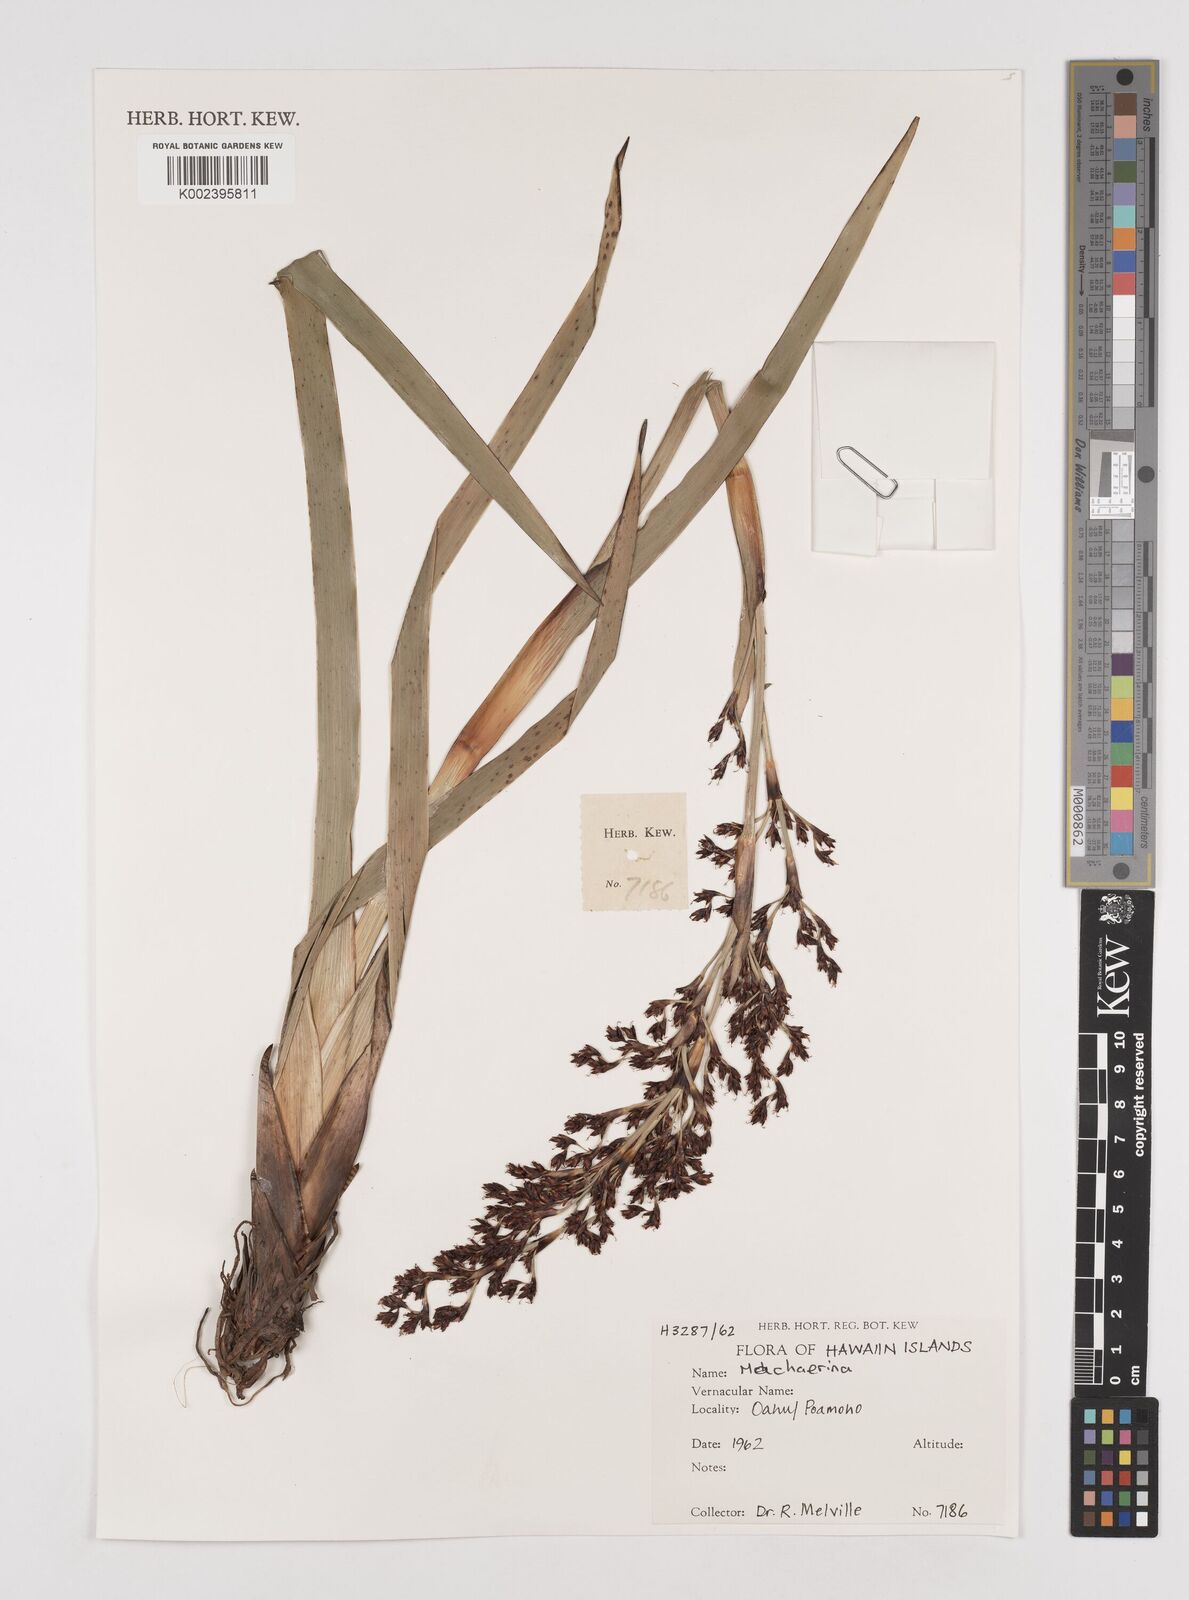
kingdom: Plantae
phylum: Tracheophyta
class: Liliopsida
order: Poales
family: Cyperaceae
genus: Machaerina
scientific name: Machaerina
